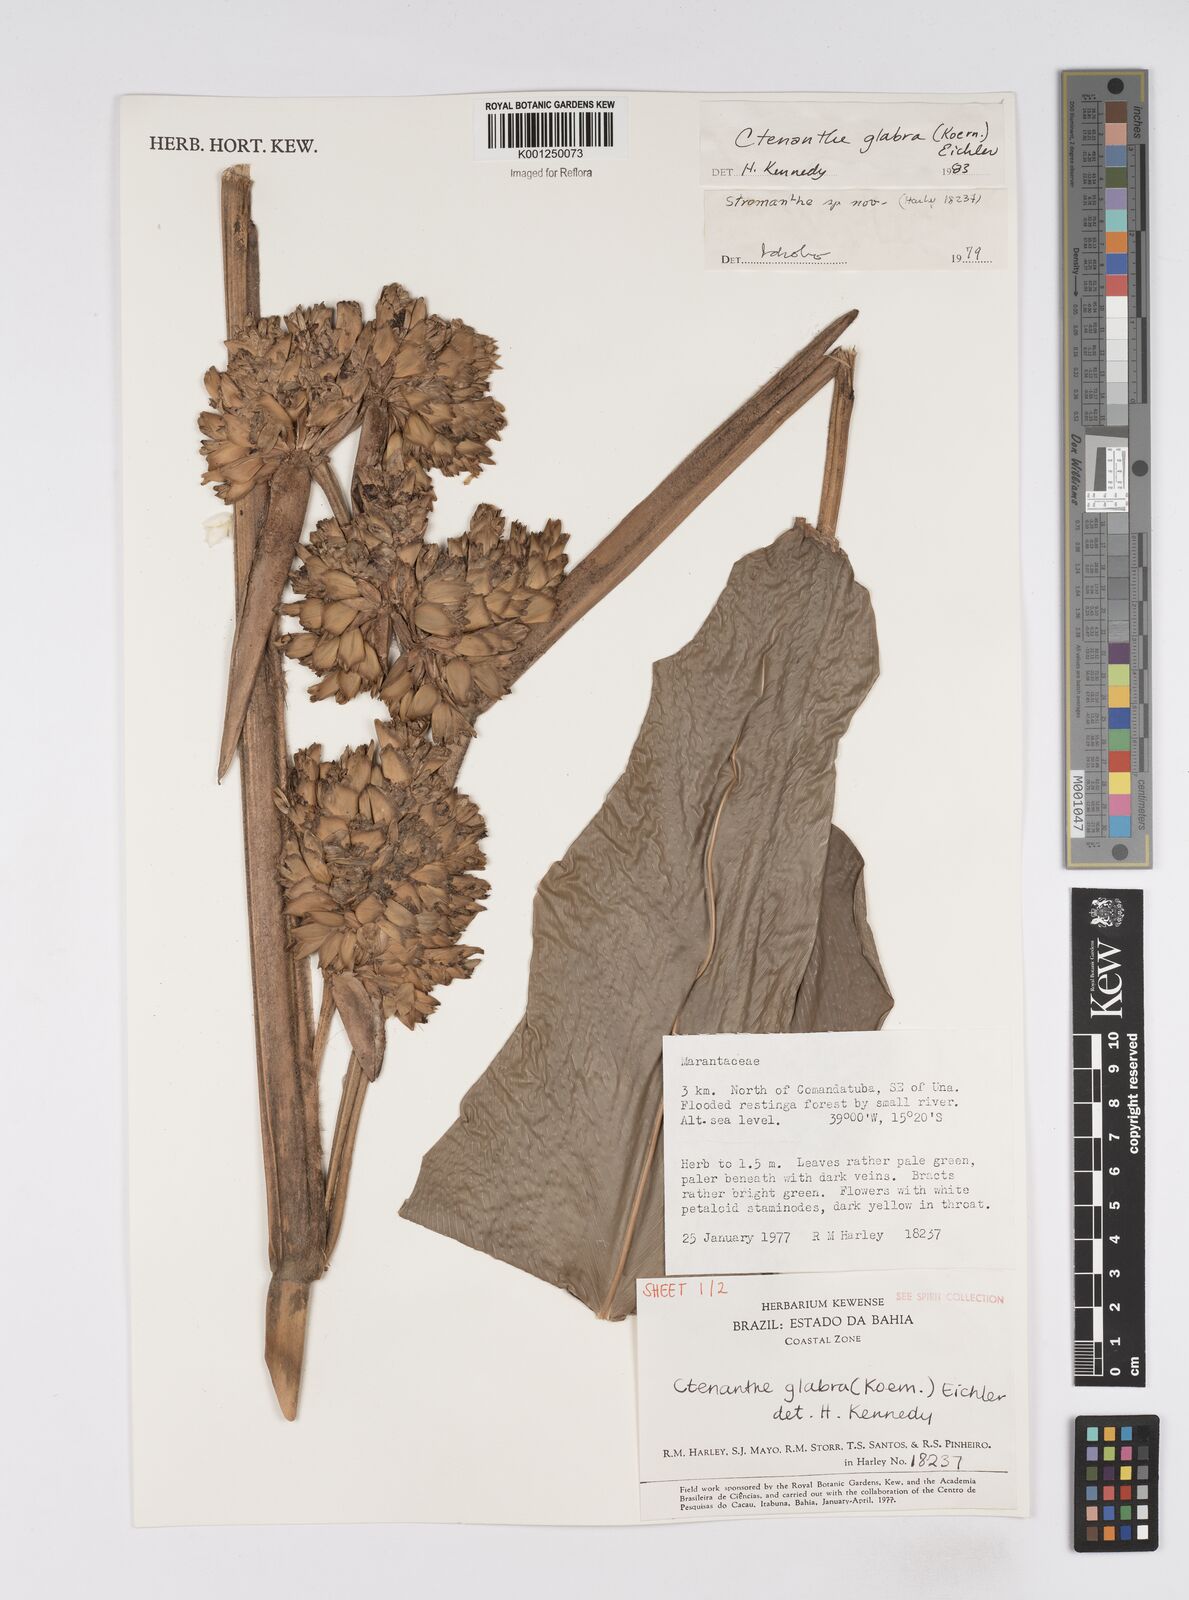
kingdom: Plantae
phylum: Tracheophyta
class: Liliopsida
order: Zingiberales
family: Marantaceae
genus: Ctenanthe
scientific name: Ctenanthe glabra
